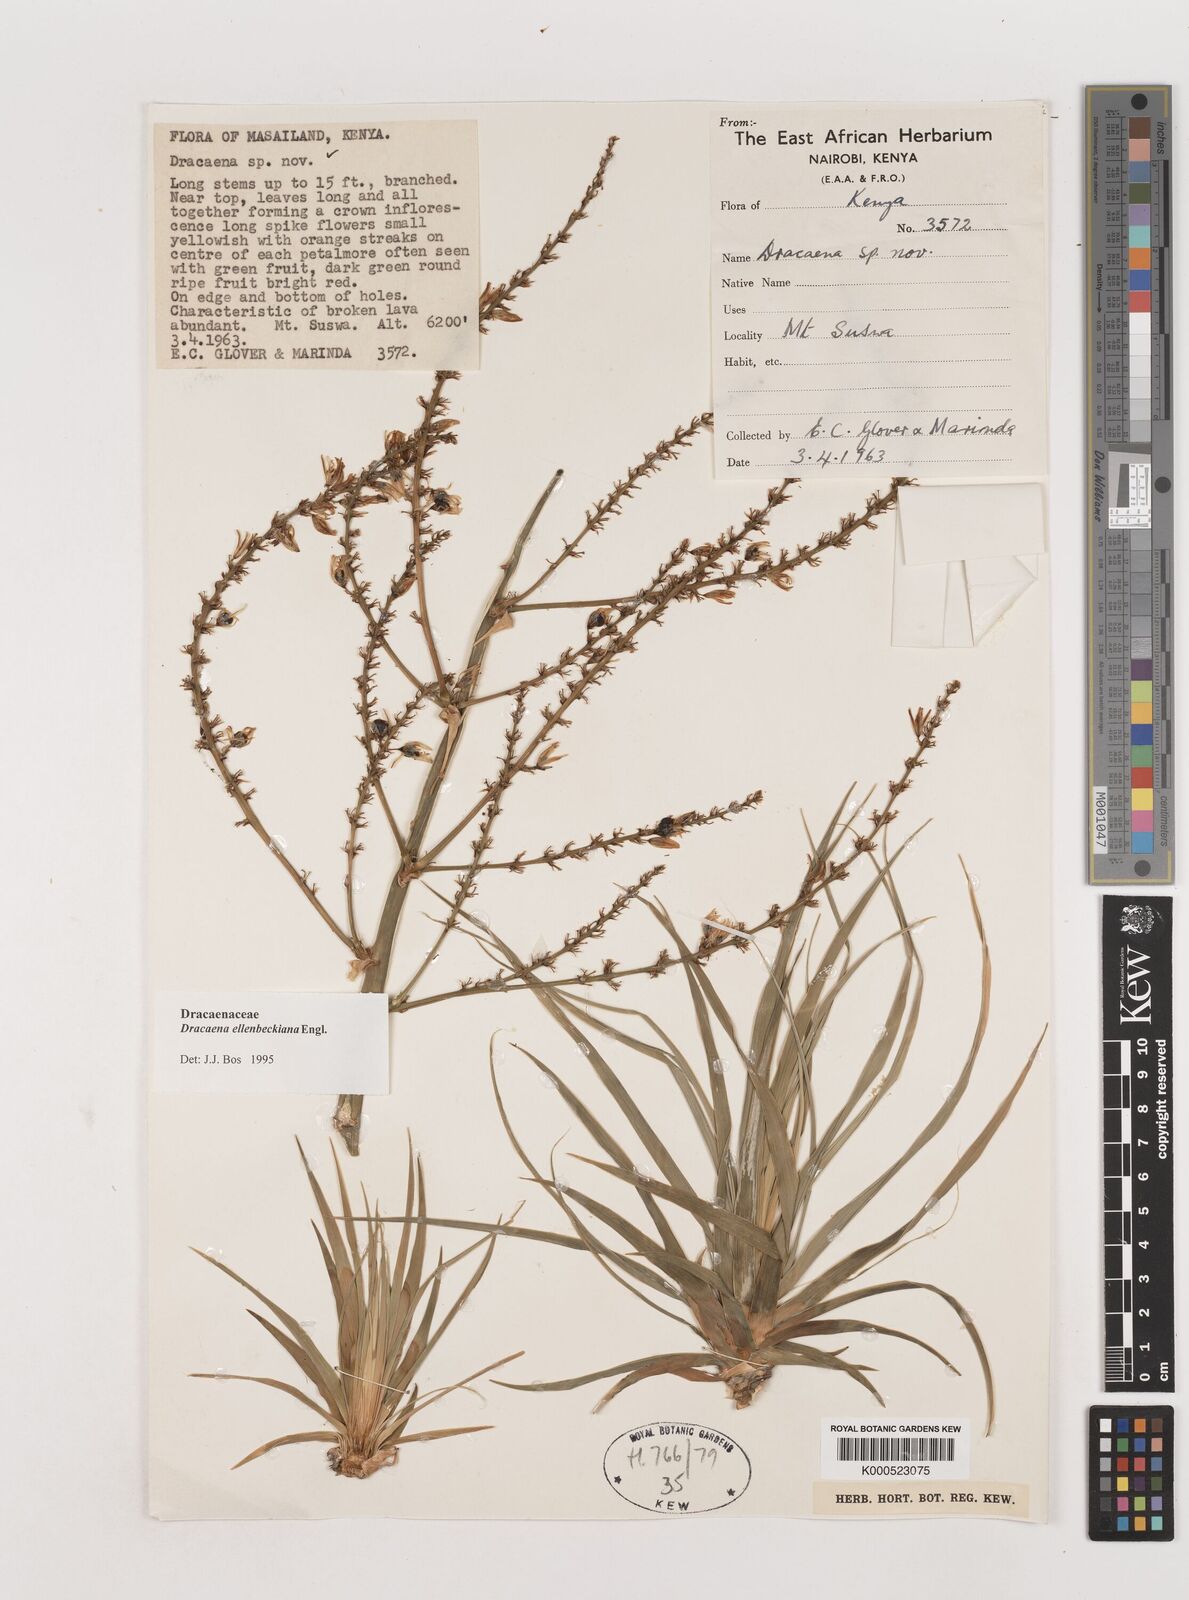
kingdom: Plantae
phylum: Tracheophyta
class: Liliopsida
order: Asparagales
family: Asparagaceae
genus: Dracaena
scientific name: Dracaena ellenbeckiana
